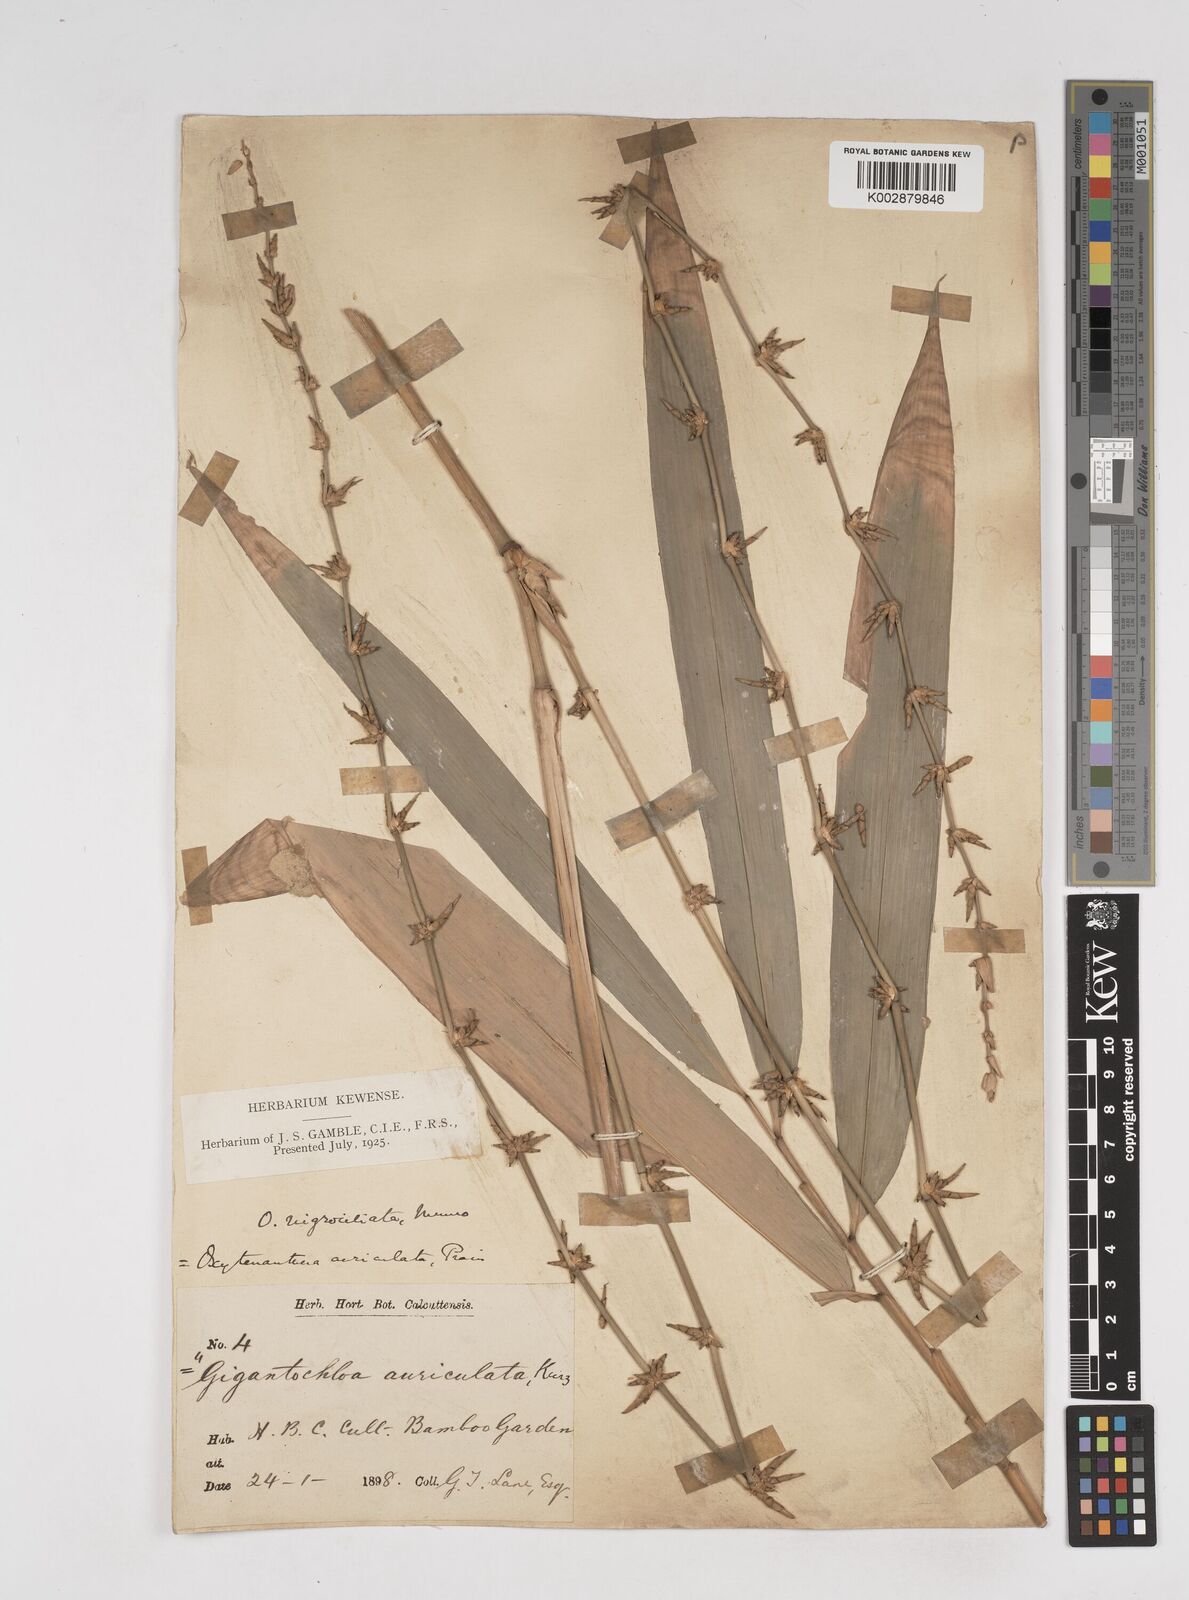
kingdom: Plantae
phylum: Tracheophyta
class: Liliopsida
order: Poales
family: Poaceae
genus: Gigantochloa
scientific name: Gigantochloa nigrociliata
